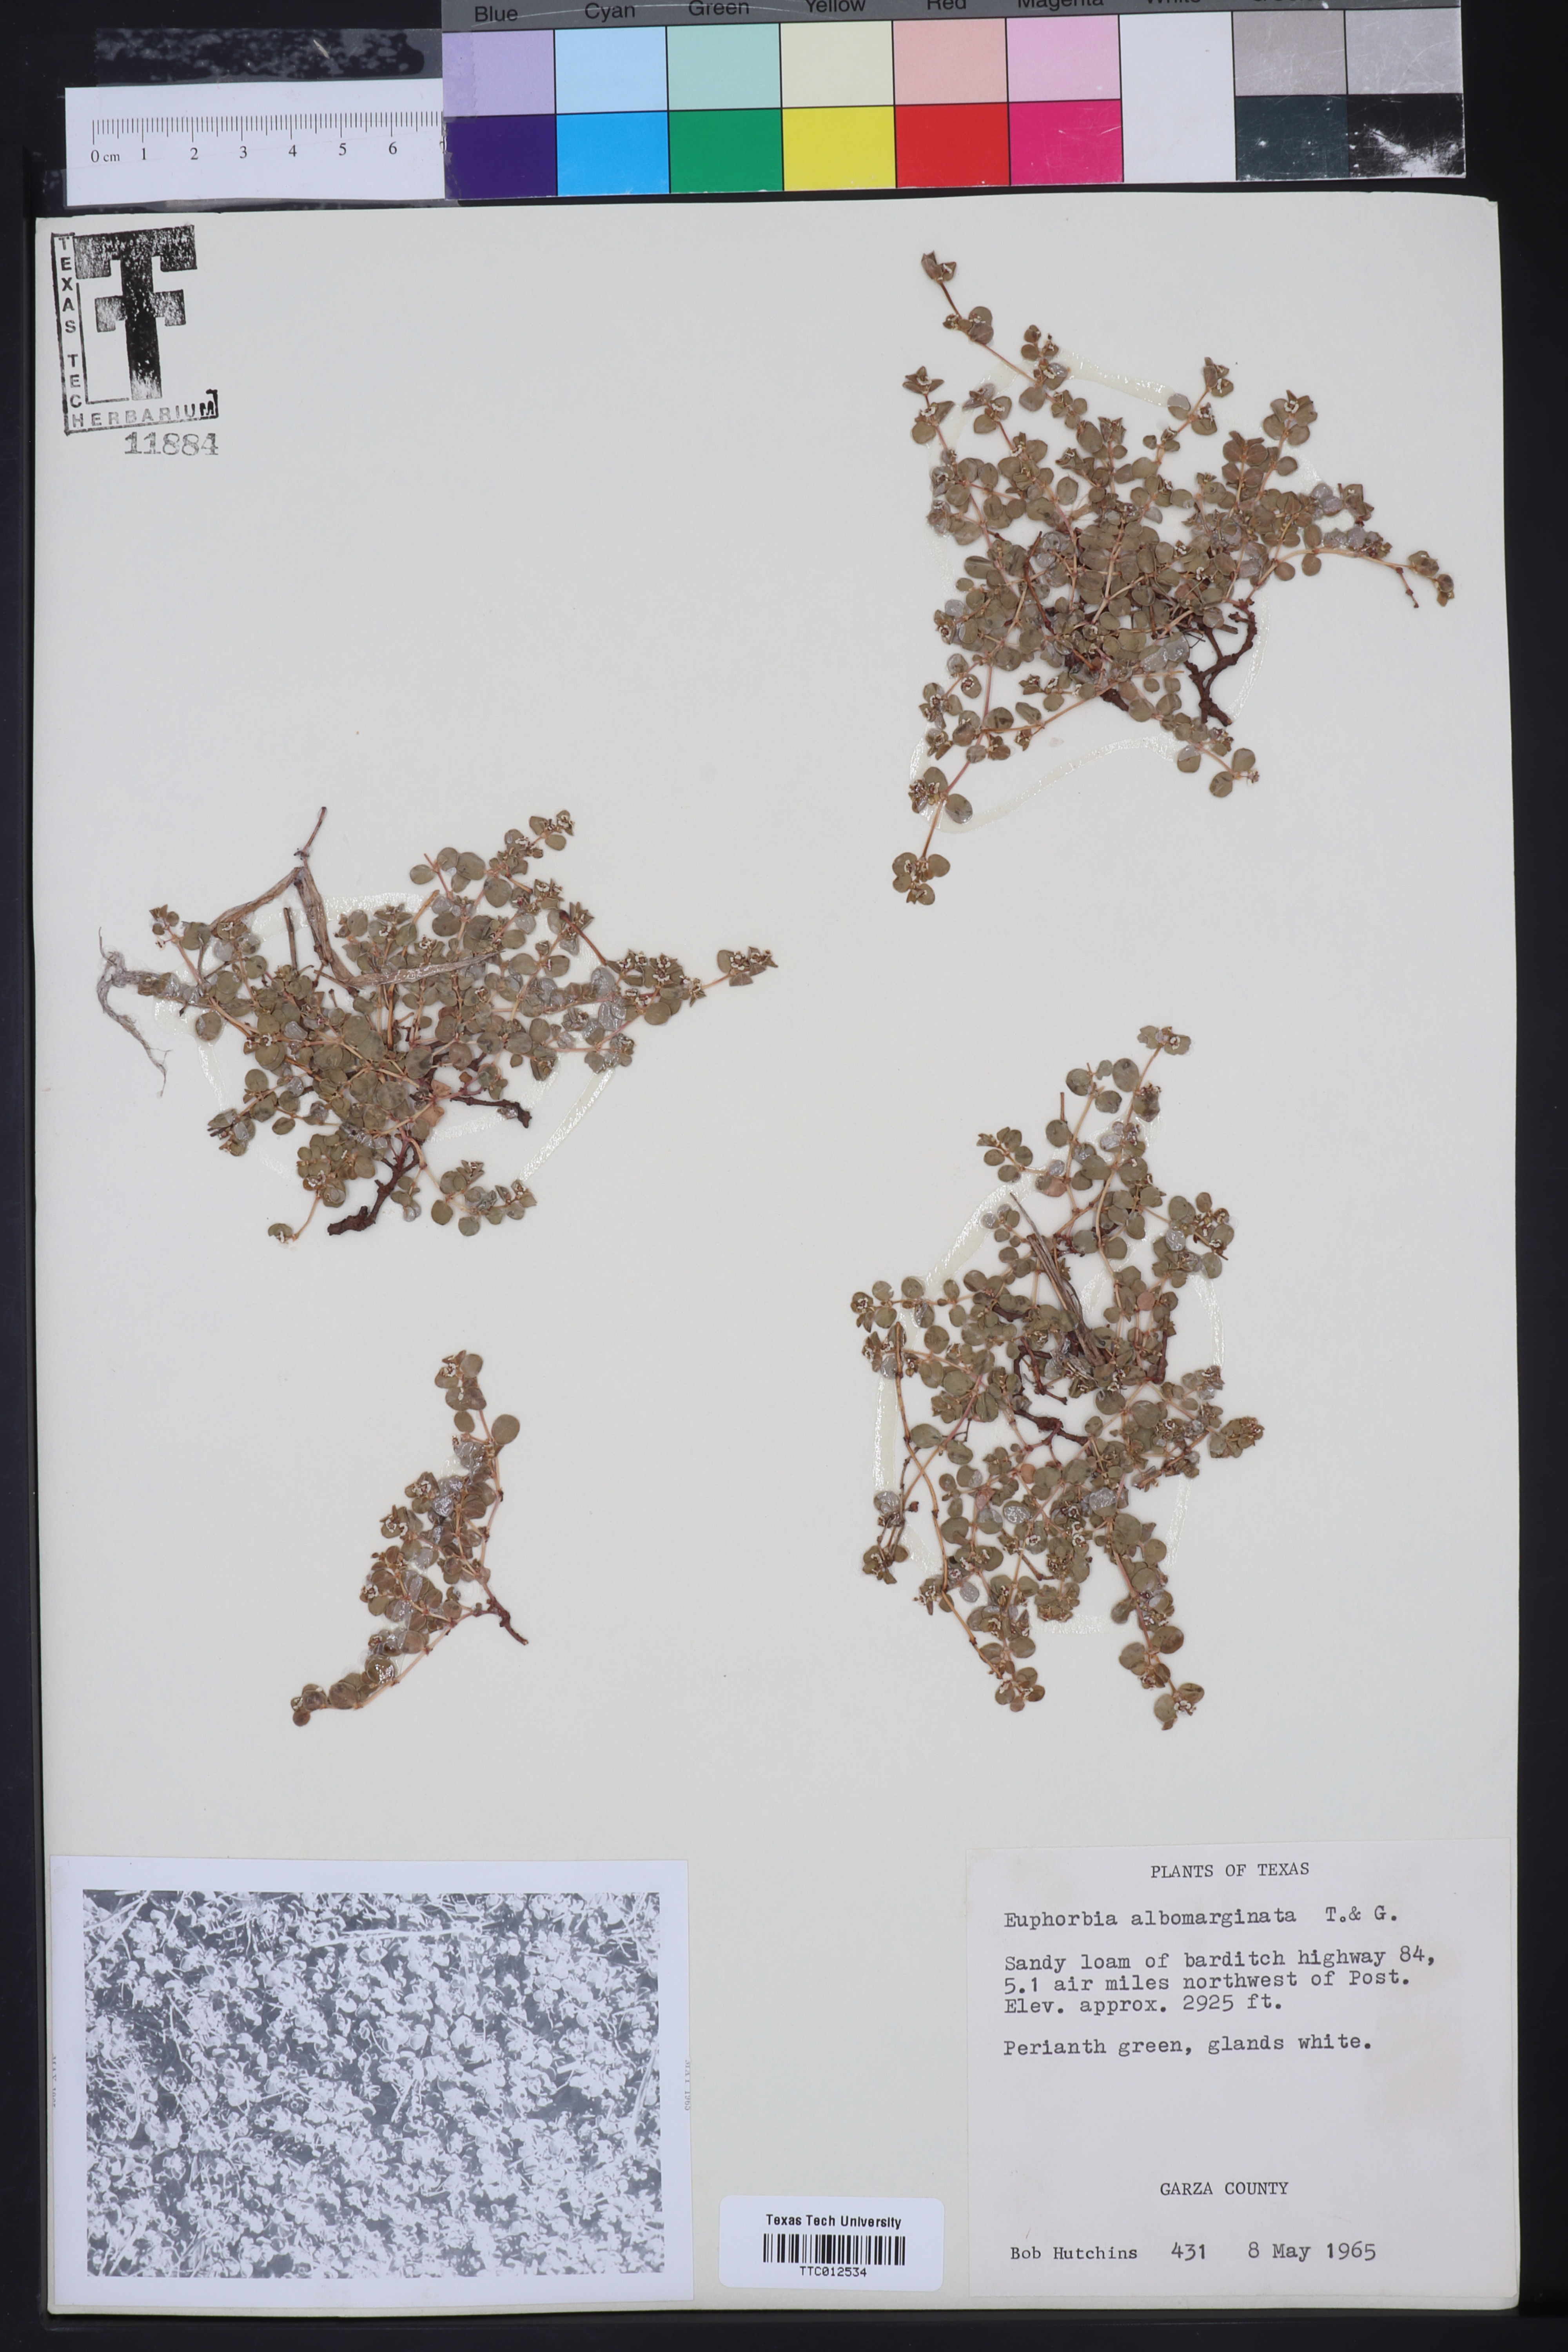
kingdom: Plantae
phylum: Tracheophyta
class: Magnoliopsida
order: Malpighiales
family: Euphorbiaceae
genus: Euphorbia
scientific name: Euphorbia albomarginata
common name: Whitemargin sandmat
